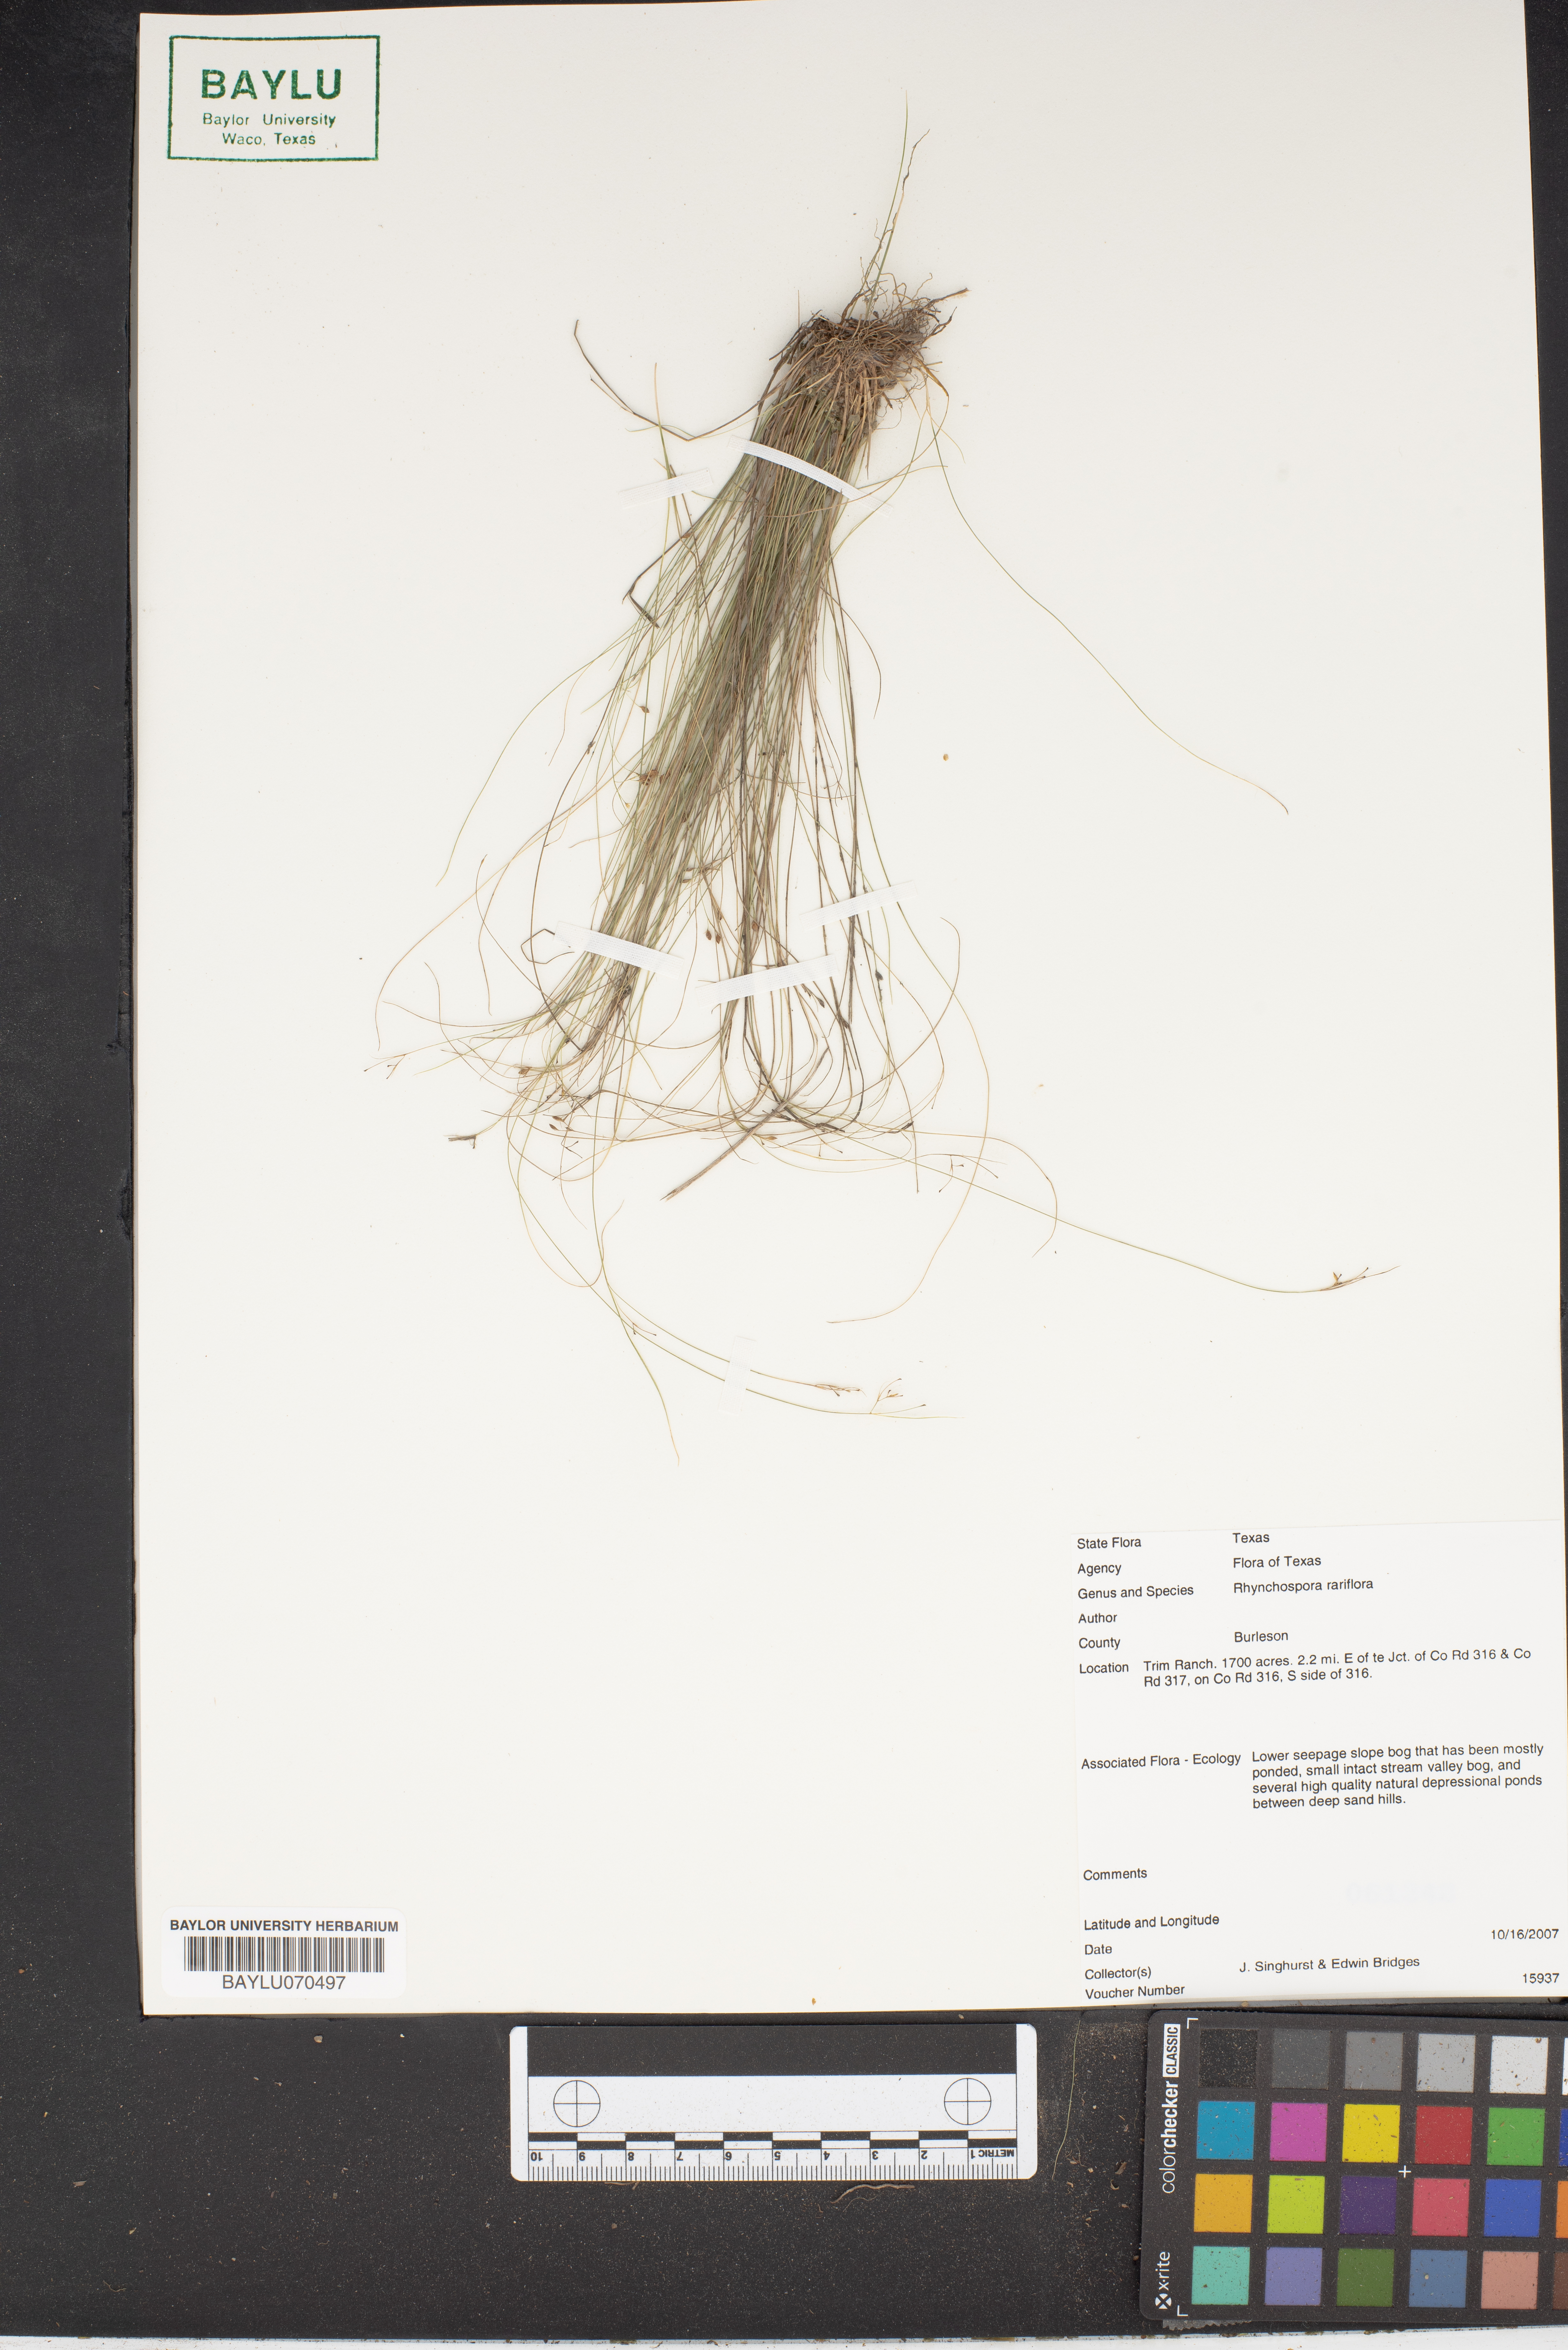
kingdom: Plantae
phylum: Tracheophyta
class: Liliopsida
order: Poales
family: Cyperaceae
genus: Rhynchospora
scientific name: Rhynchospora rariflora
